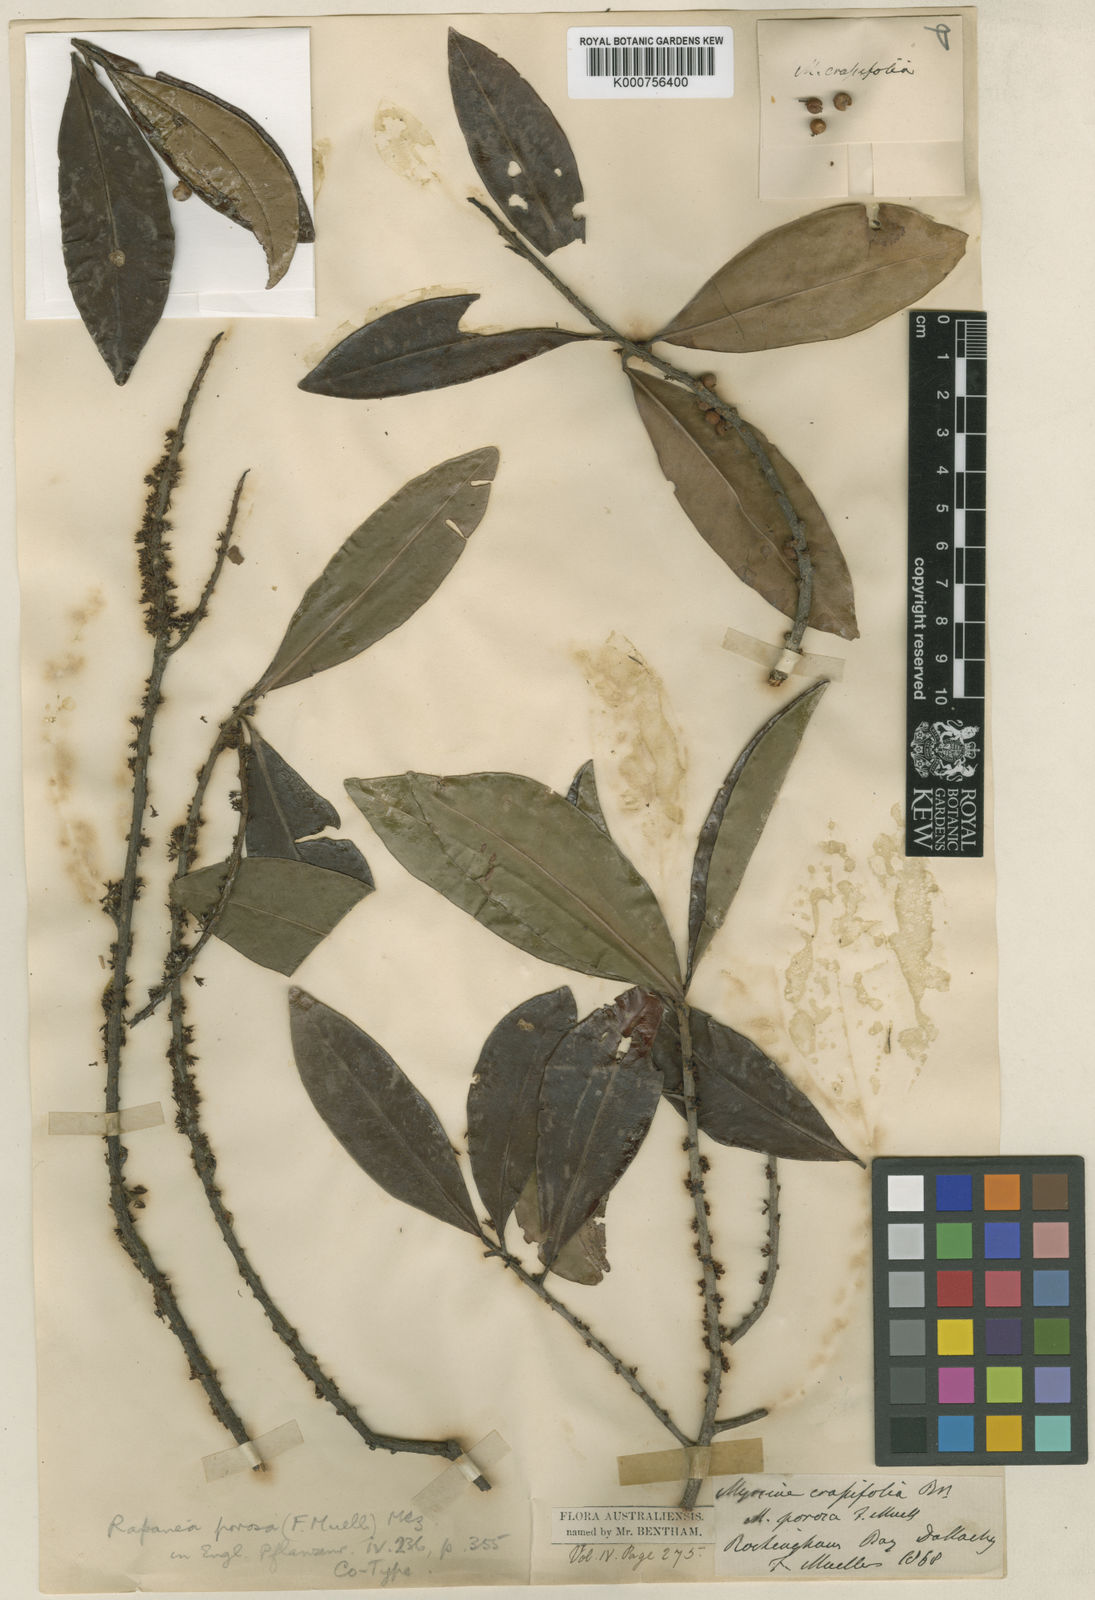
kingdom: Plantae
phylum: Tracheophyta
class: Magnoliopsida
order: Ericales
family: Primulaceae
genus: Myrsine
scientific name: Myrsine porosa
